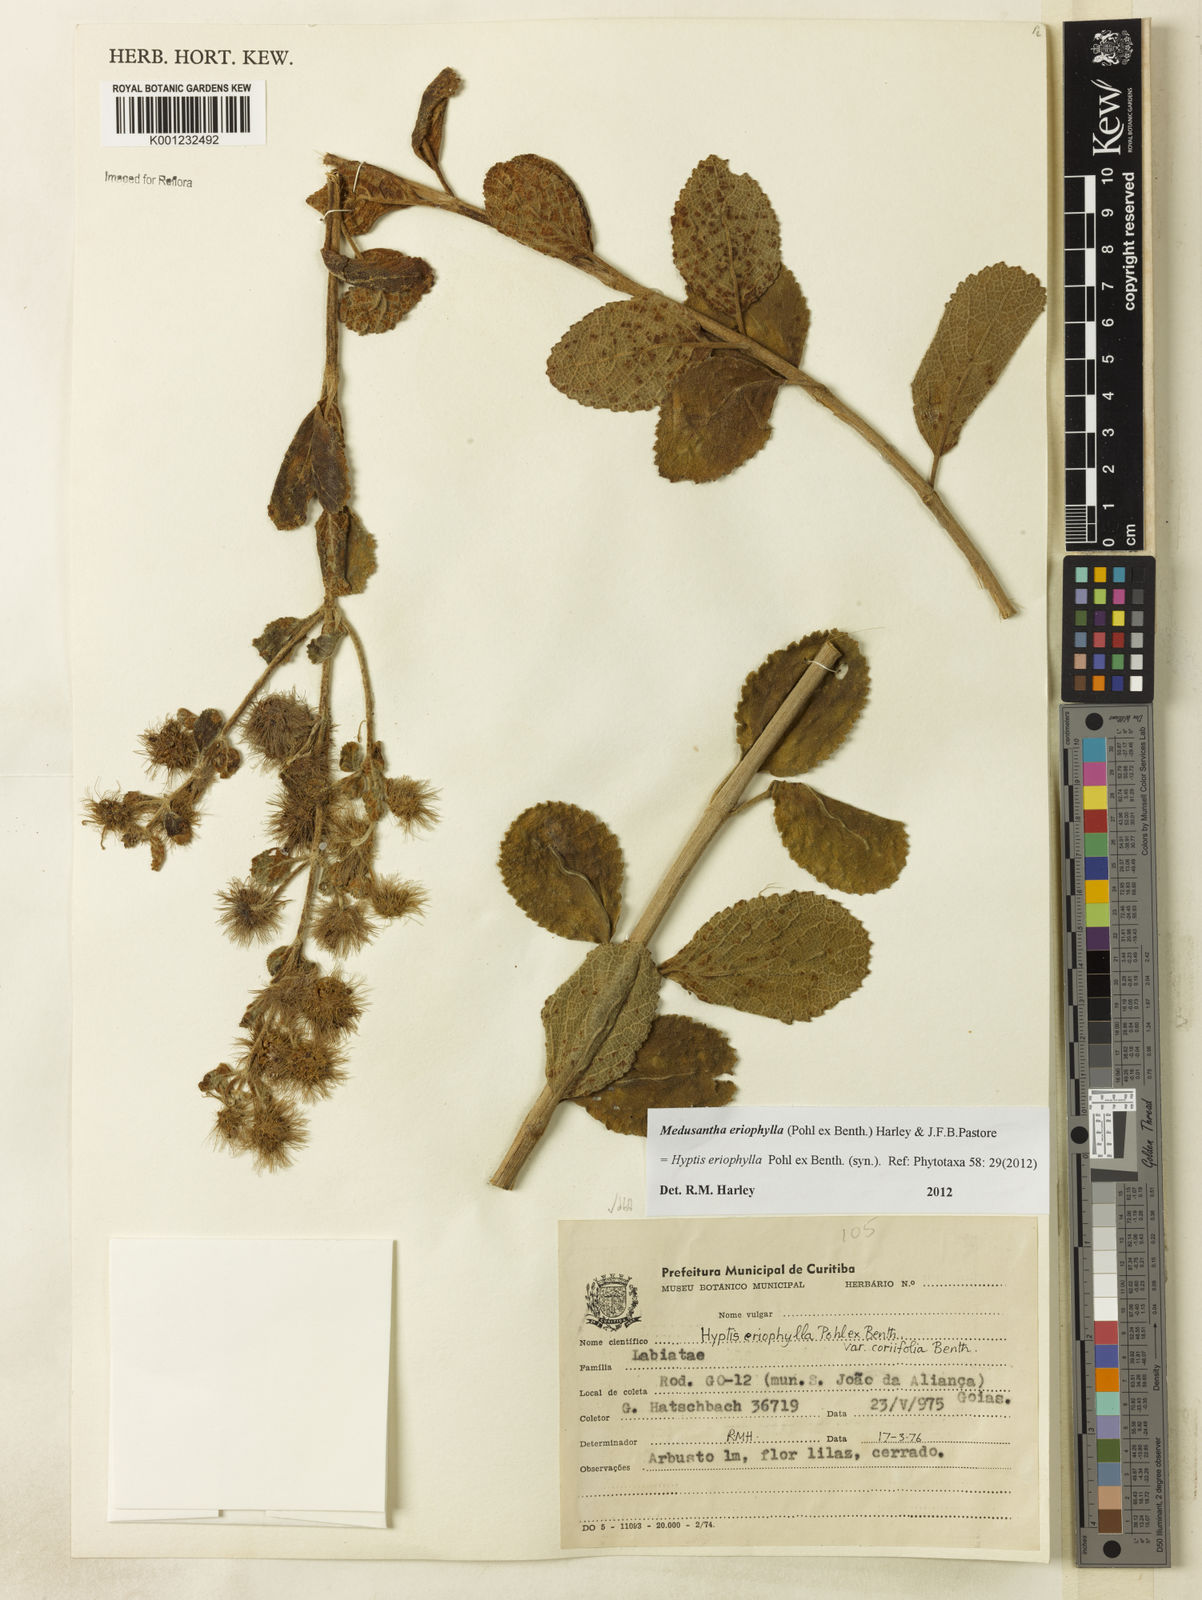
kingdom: Plantae
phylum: Tracheophyta
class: Magnoliopsida
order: Lamiales
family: Lamiaceae
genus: Medusantha
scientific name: Medusantha eriophylla
